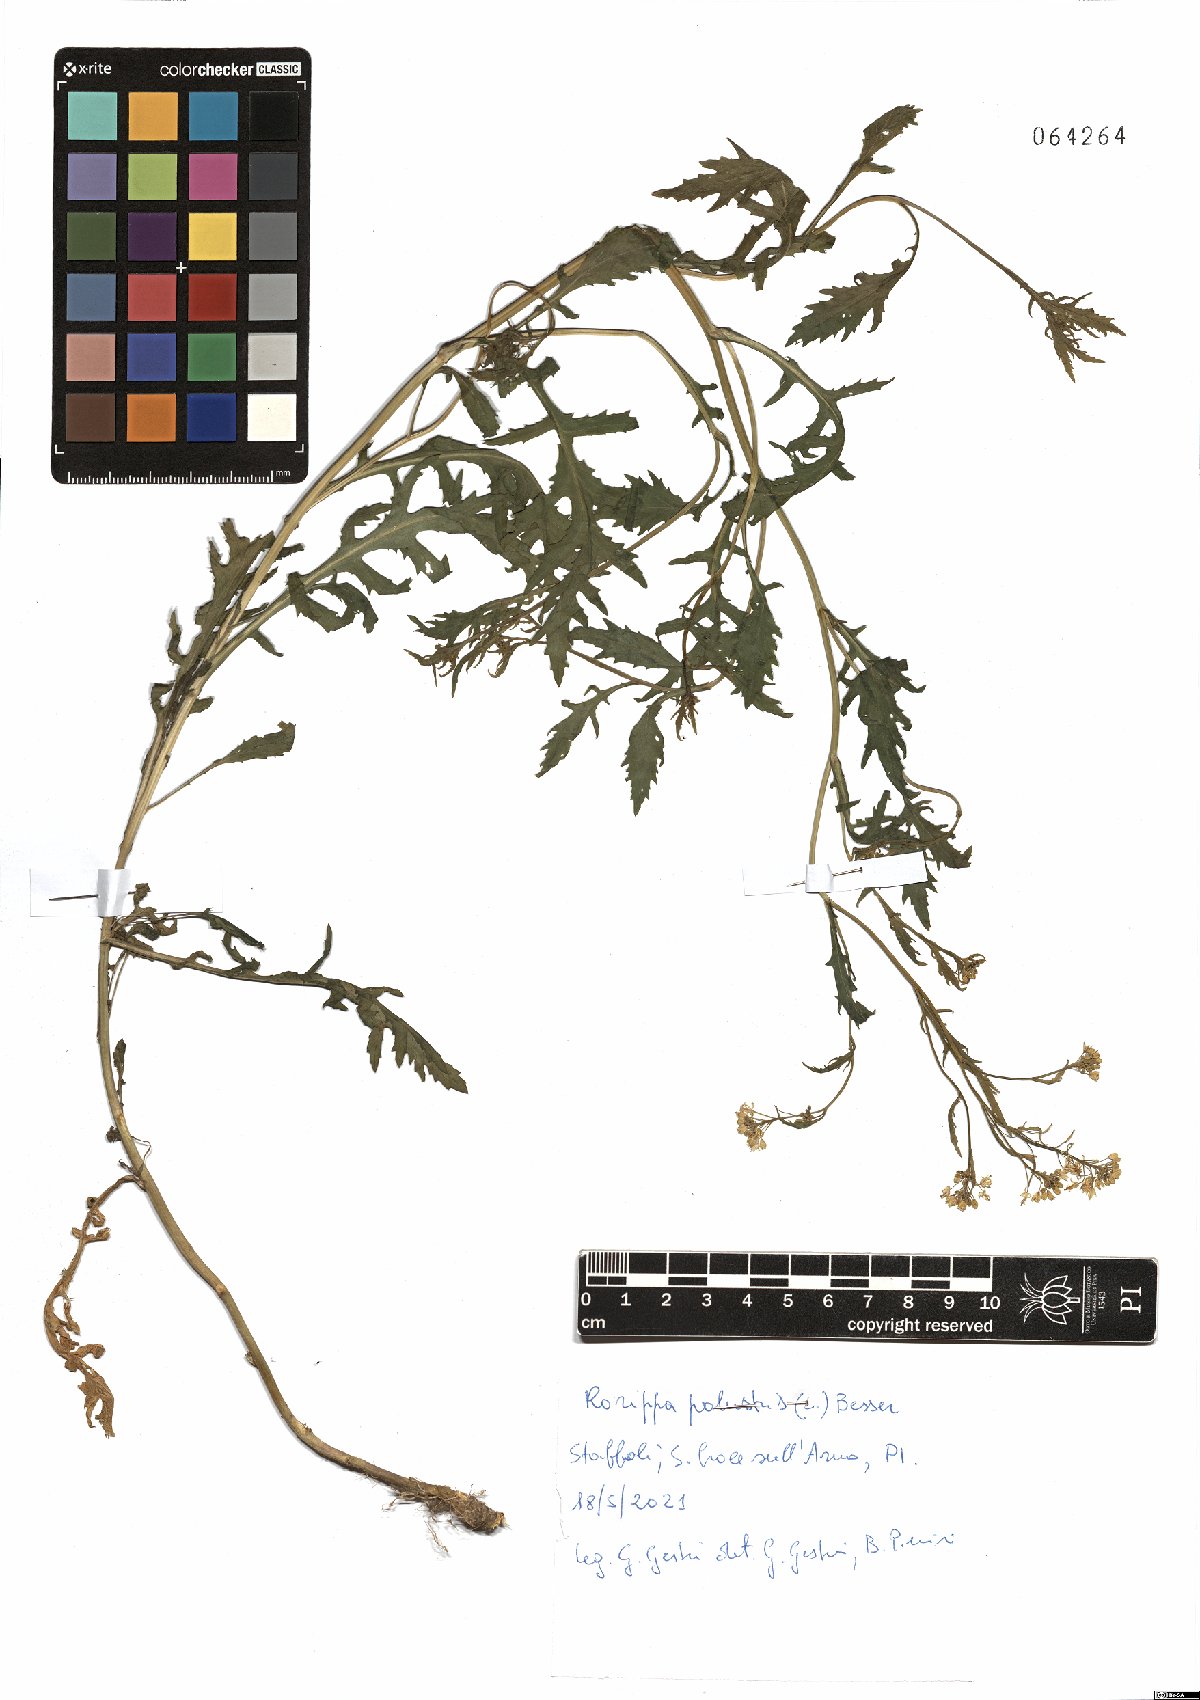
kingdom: Plantae
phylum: Tracheophyta
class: Magnoliopsida
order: Brassicales
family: Brassicaceae
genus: Rorippa
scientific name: Rorippa palustris
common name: Marsh yellow-cress
